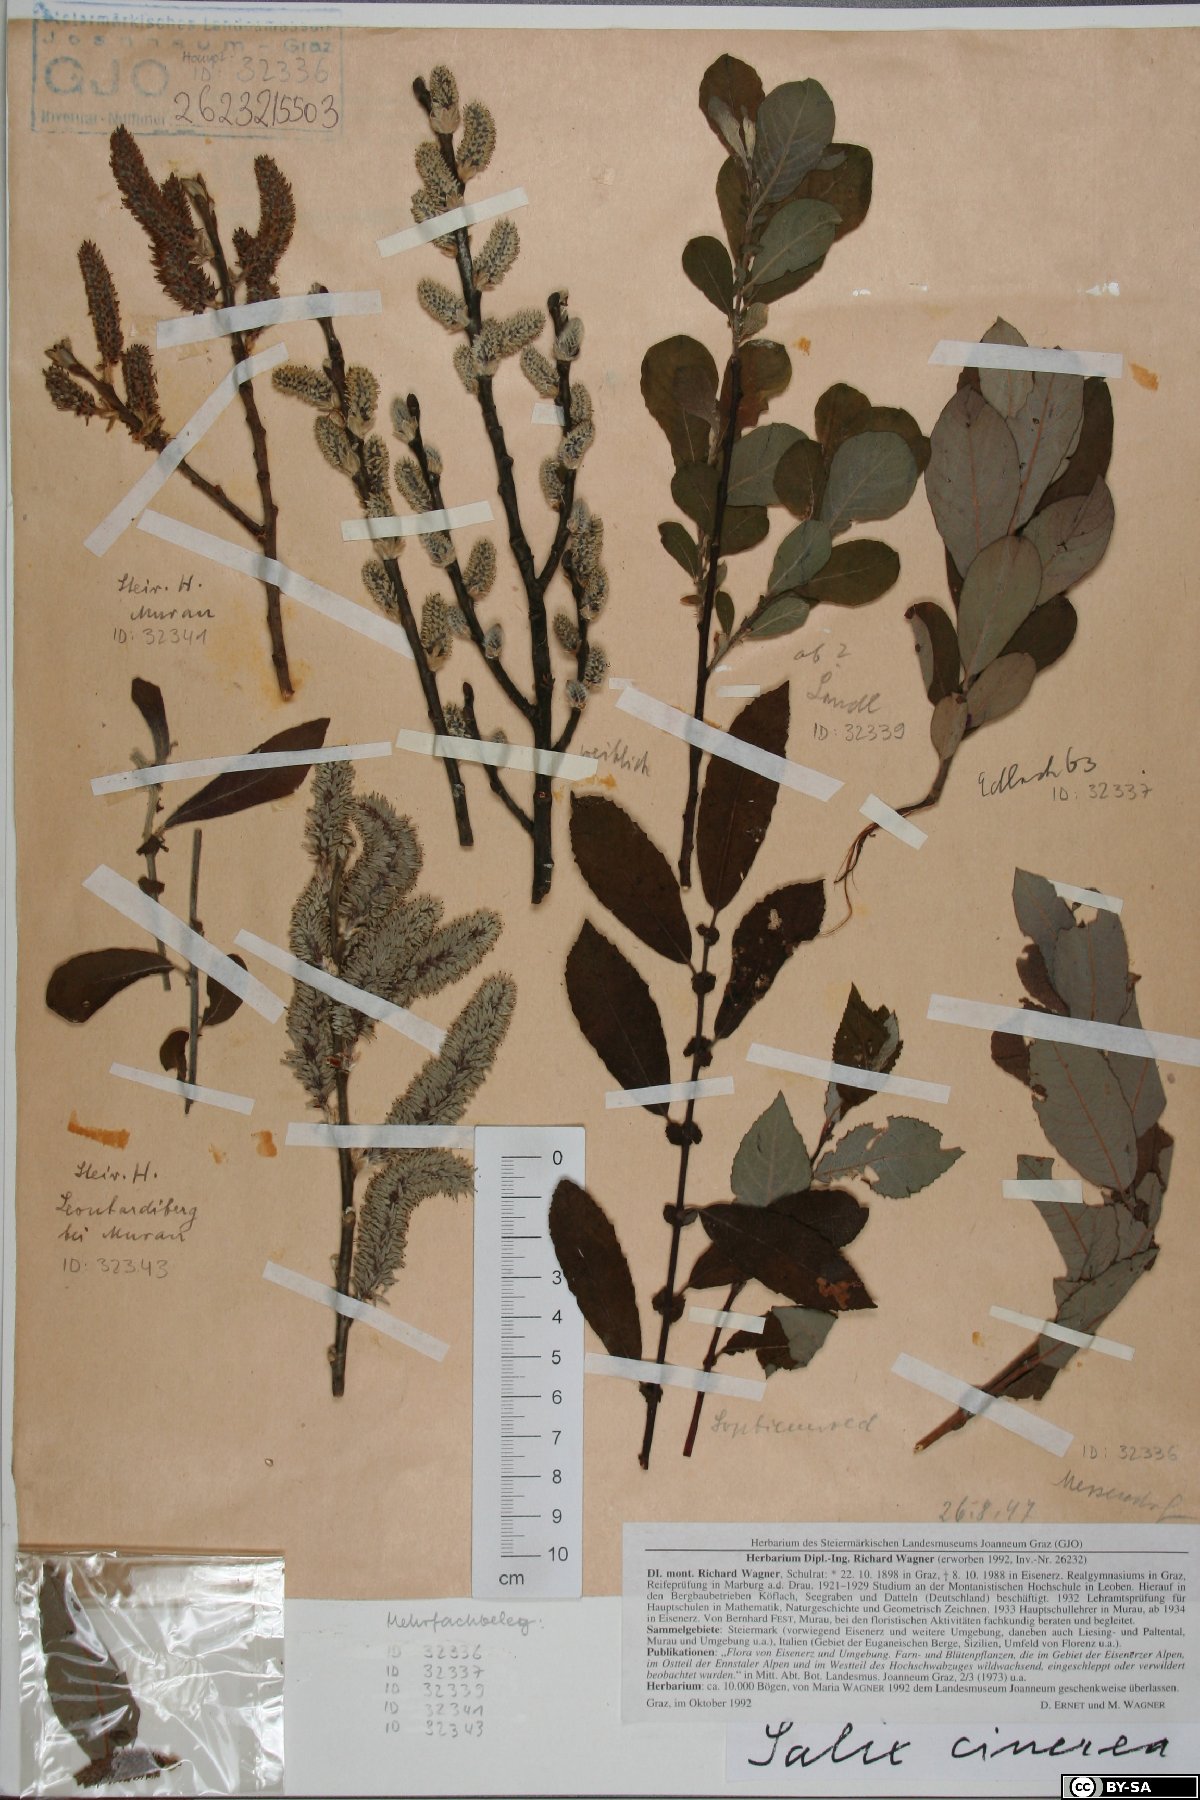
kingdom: Plantae
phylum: Tracheophyta
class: Magnoliopsida
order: Malpighiales
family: Salicaceae
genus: Salix
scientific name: Salix cinerea
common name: Common sallow
